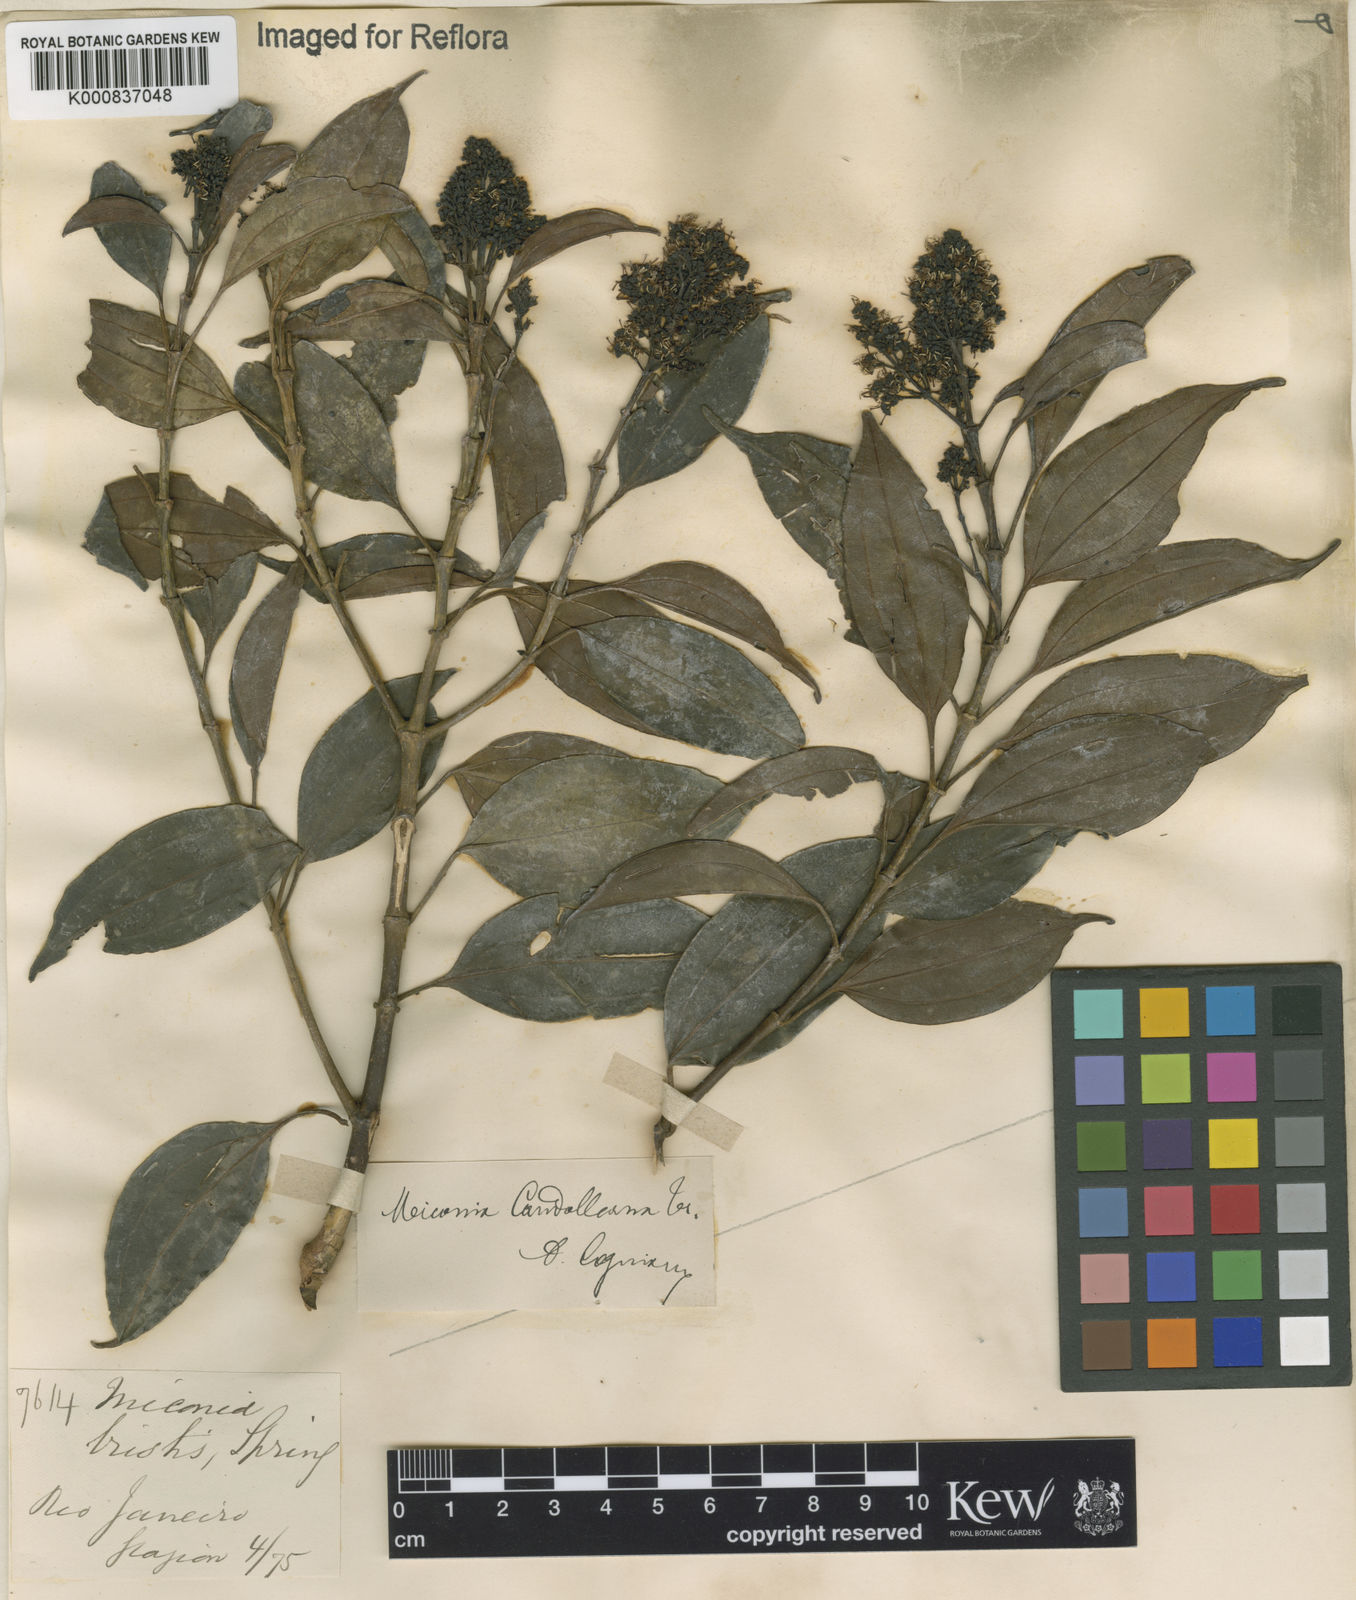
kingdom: Plantae
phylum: Tracheophyta
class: Magnoliopsida
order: Myrtales
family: Melastomataceae
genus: Miconia
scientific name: Miconia cinnamomifolia
